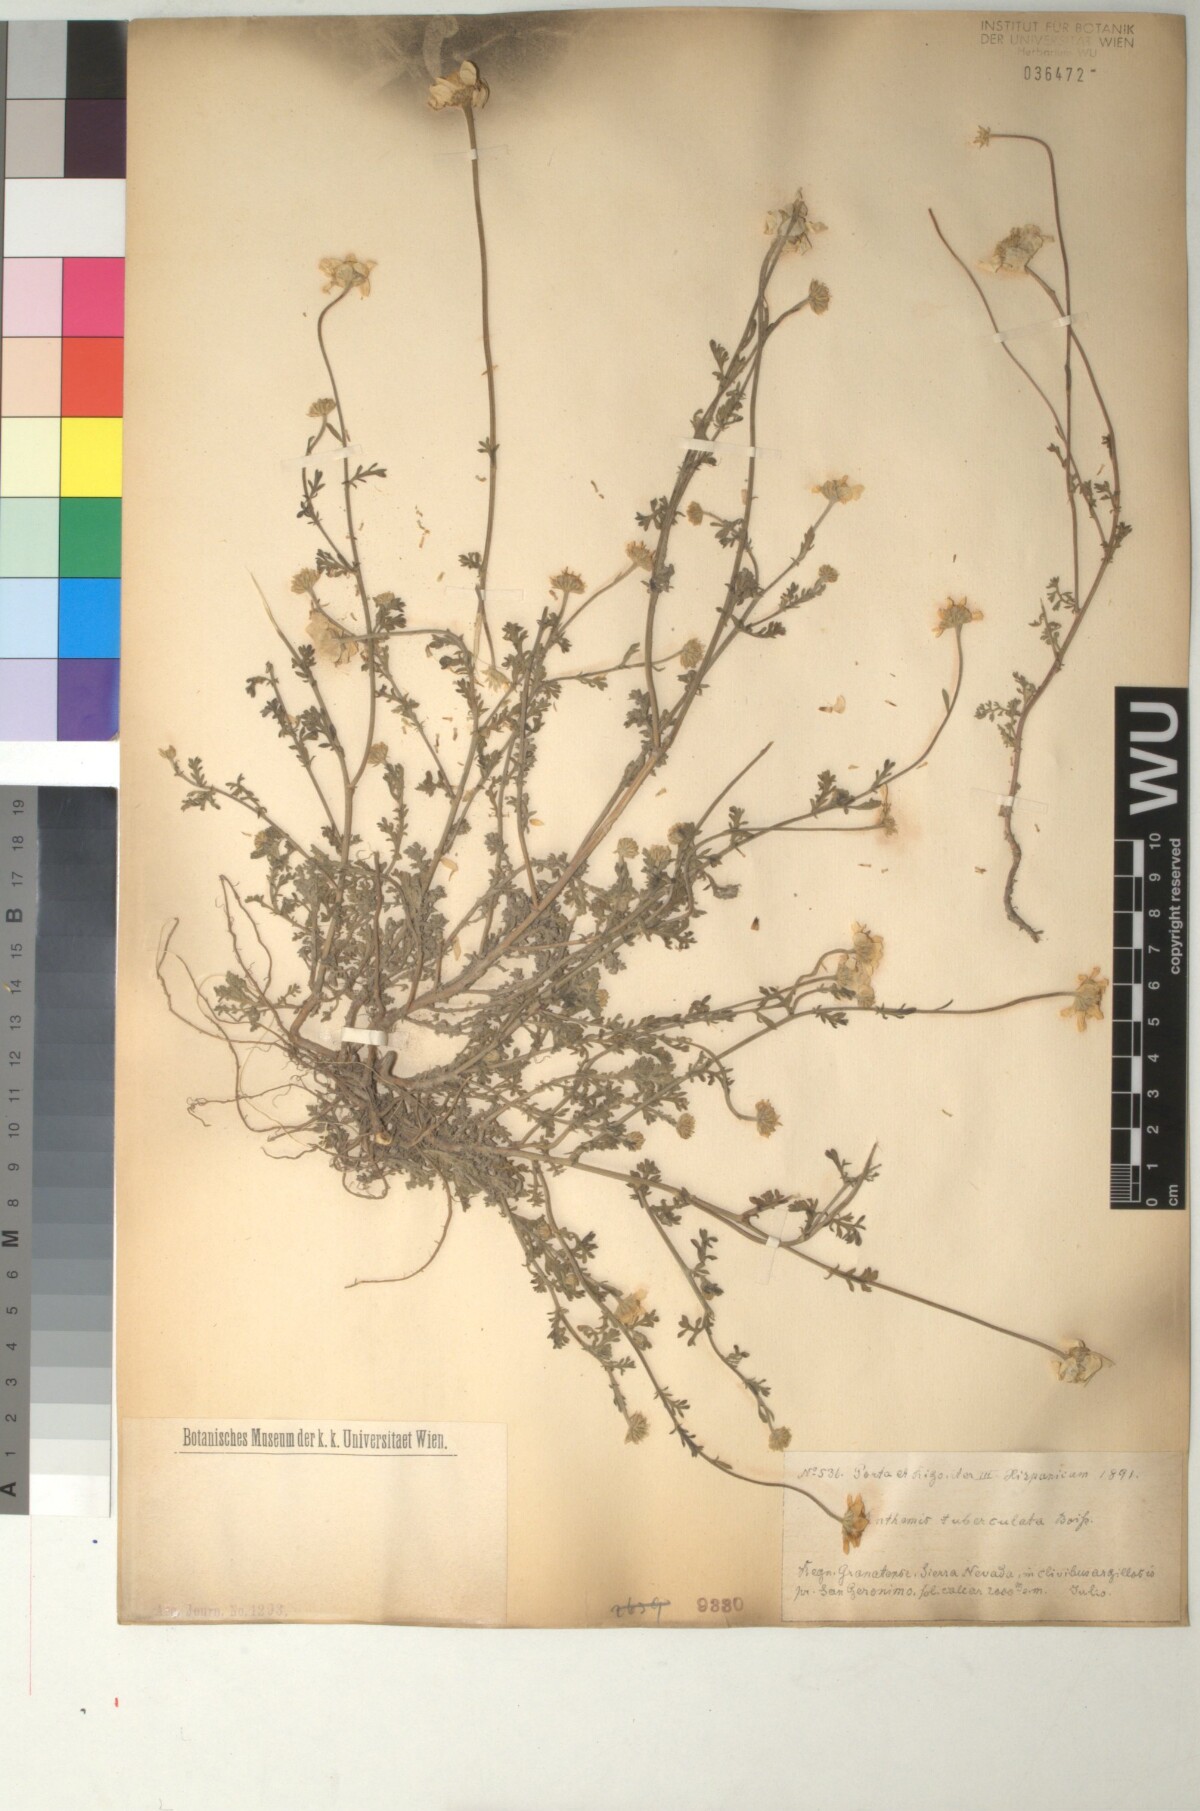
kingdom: Plantae
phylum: Tracheophyta
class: Magnoliopsida
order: Asterales
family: Asteraceae
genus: Anthemis
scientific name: Anthemis pedunculata
